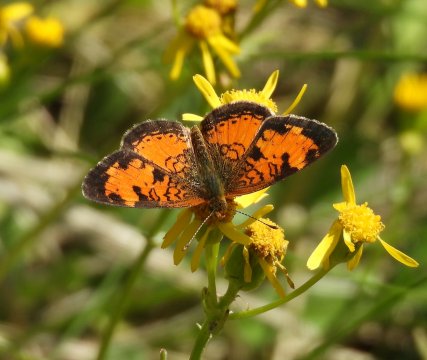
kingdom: Animalia
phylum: Arthropoda
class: Insecta
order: Lepidoptera
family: Nymphalidae
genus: Phyciodes
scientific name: Phyciodes tharos
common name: Northern Crescent
